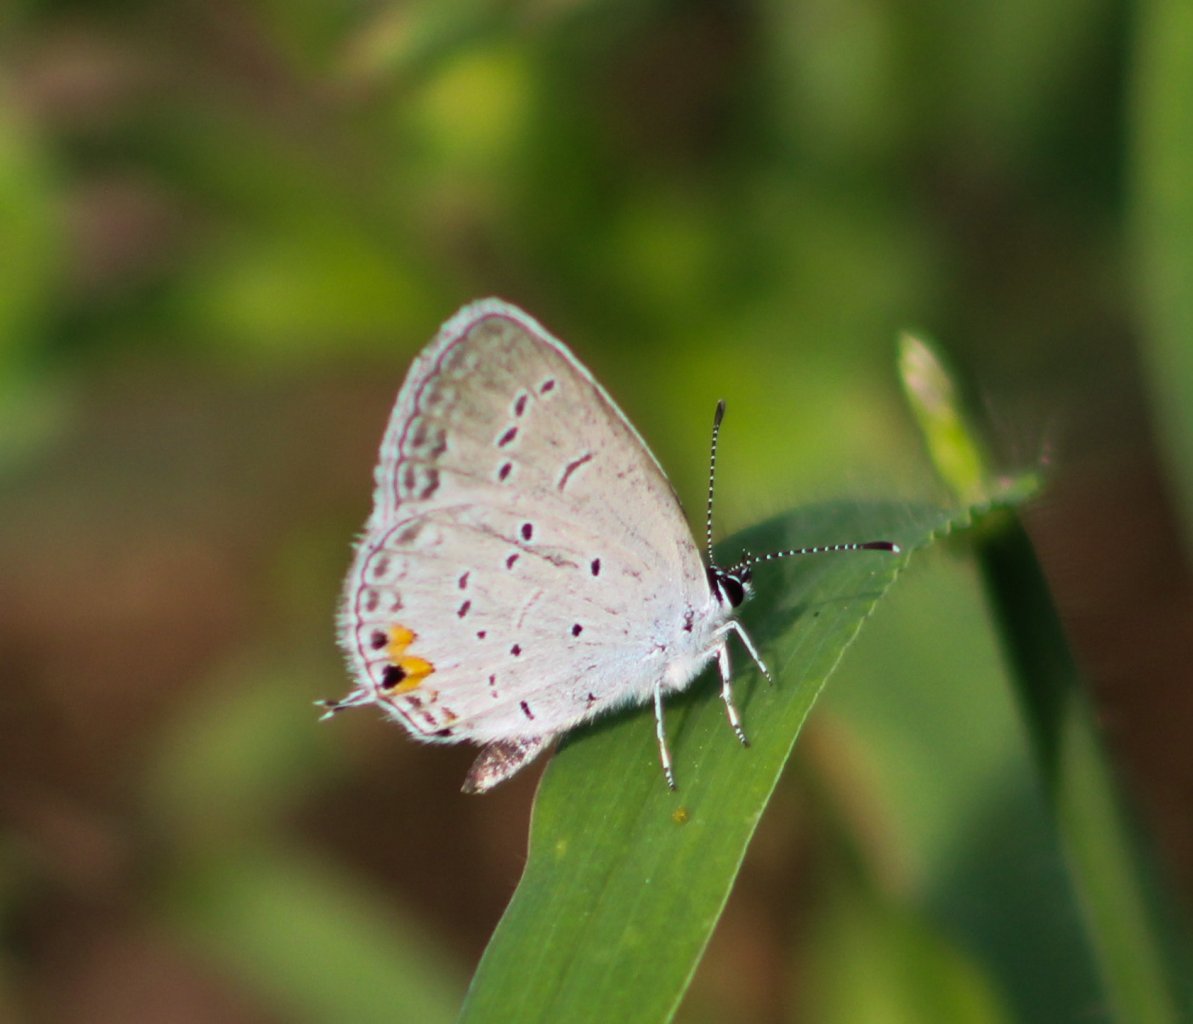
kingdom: Animalia
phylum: Arthropoda
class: Insecta
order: Lepidoptera
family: Lycaenidae
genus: Elkalyce
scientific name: Elkalyce comyntas
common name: Eastern Tailed-Blue
